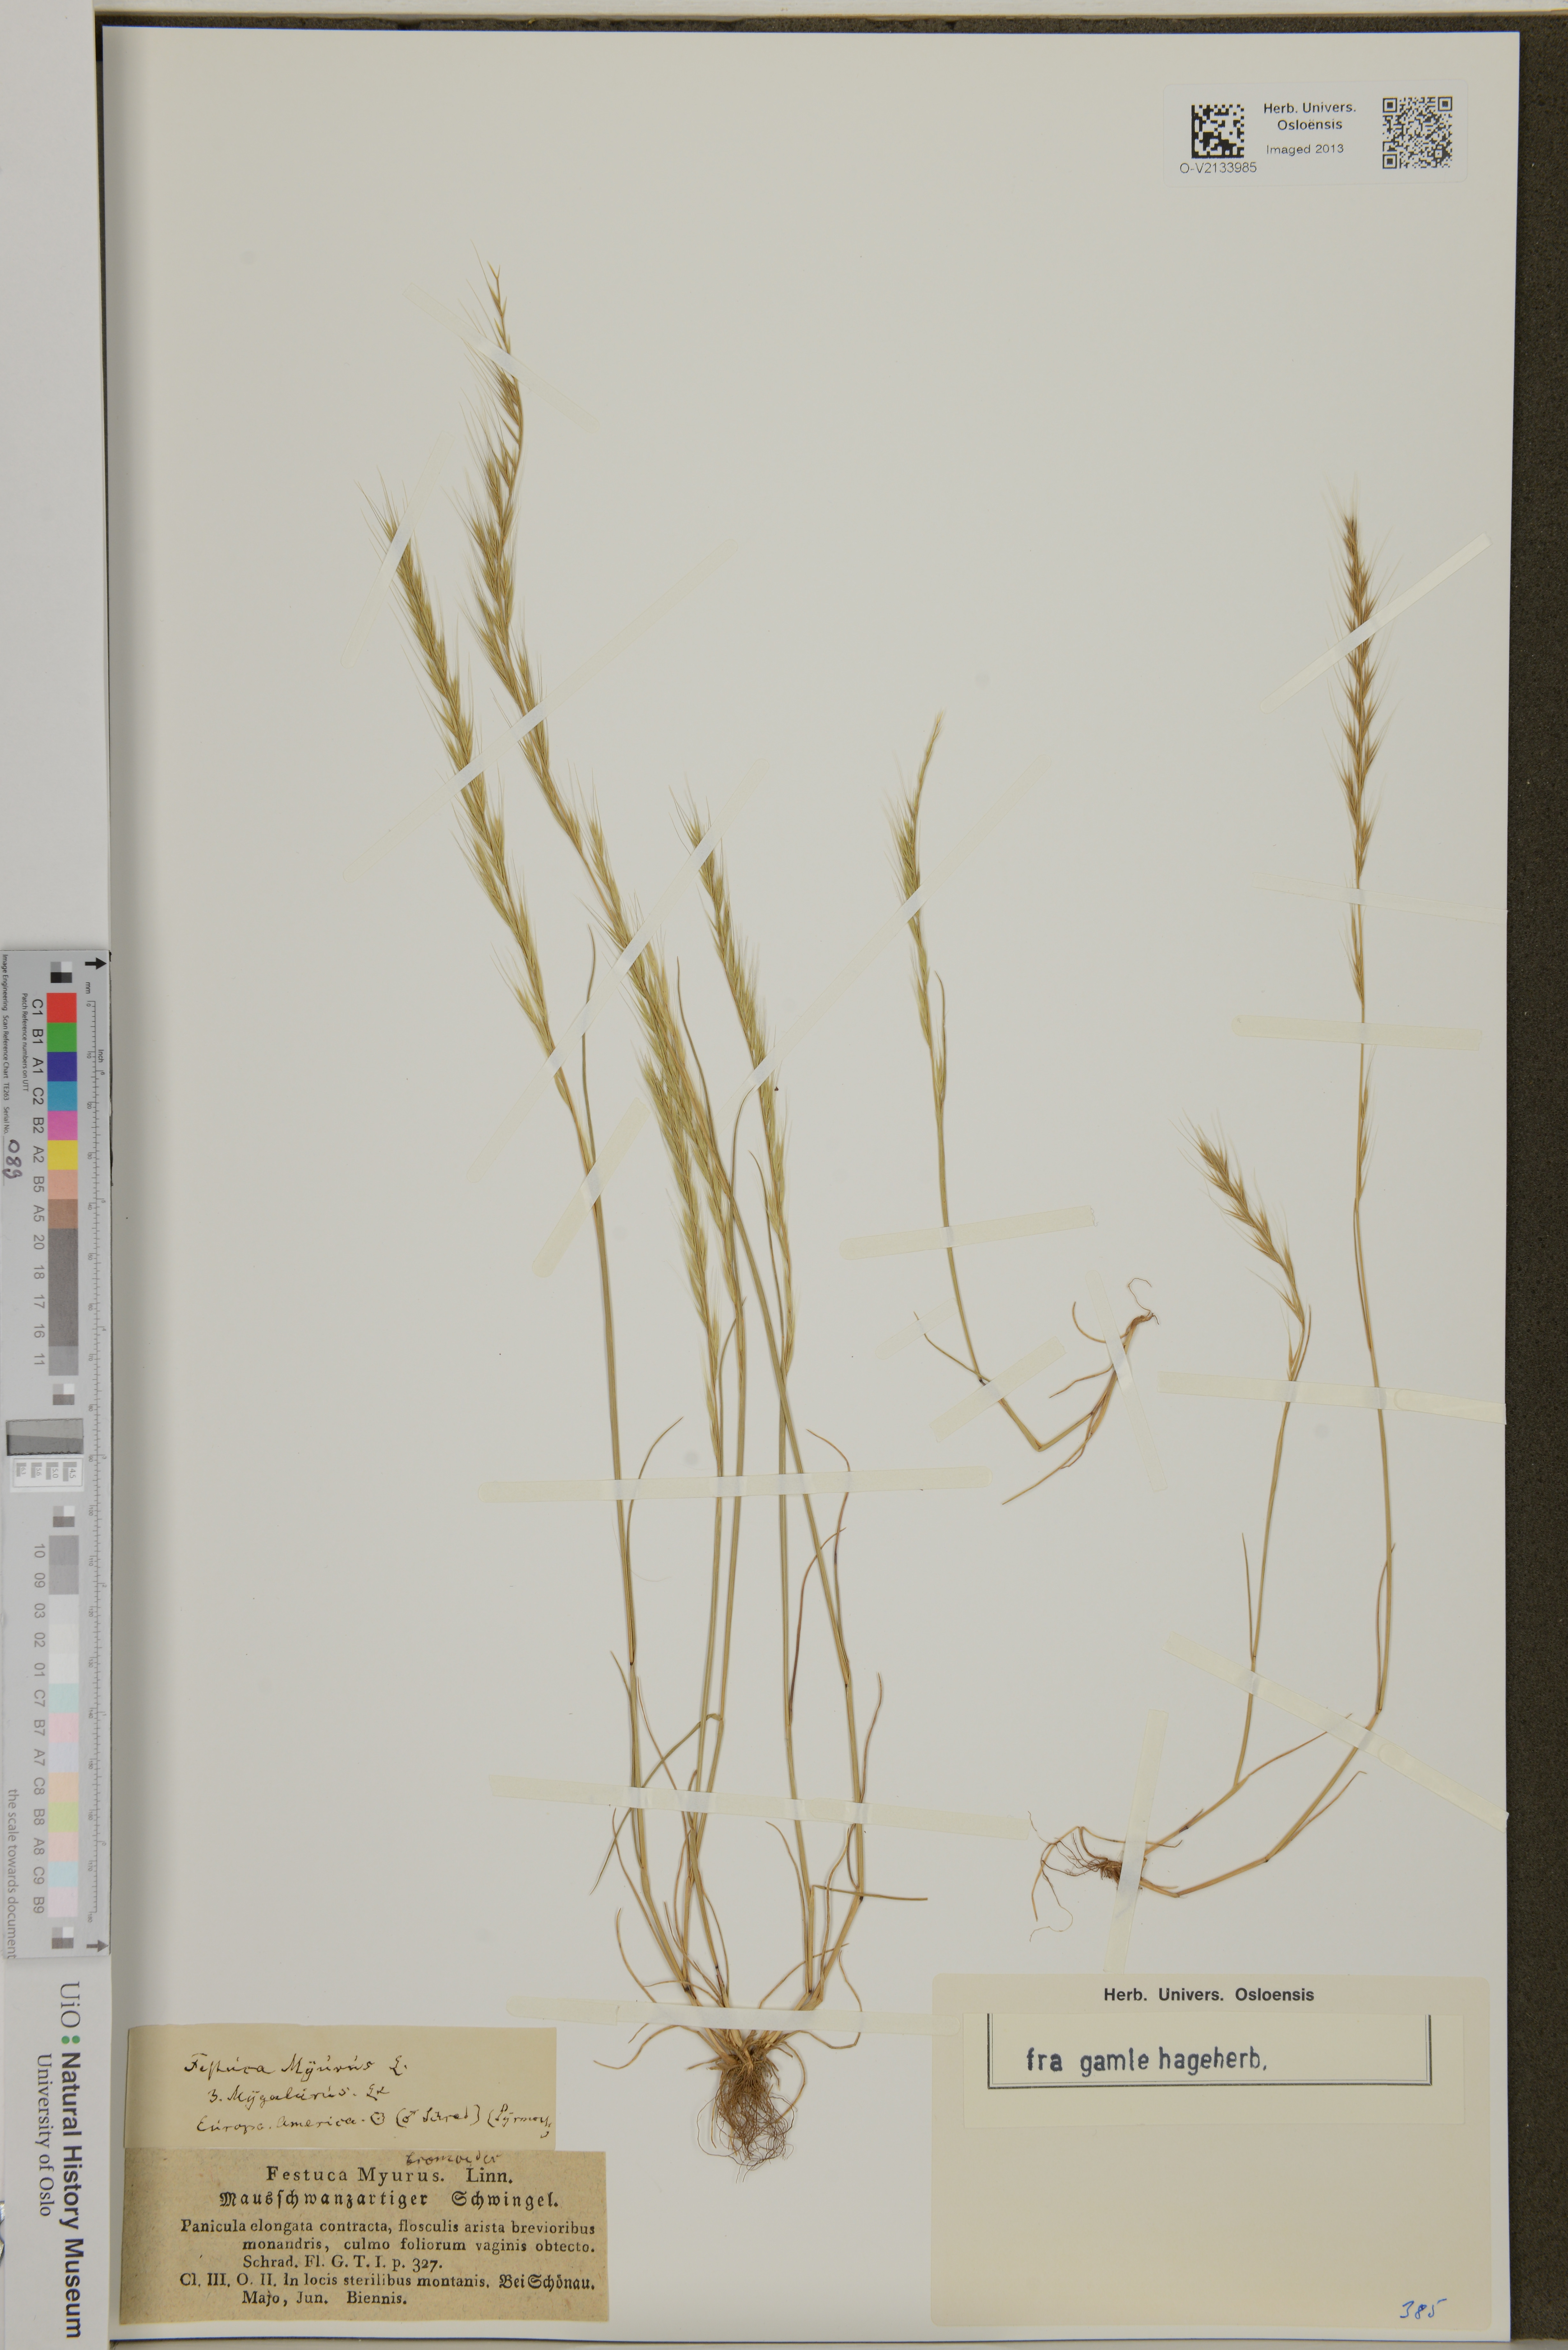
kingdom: Plantae
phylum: Tracheophyta
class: Liliopsida
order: Poales
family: Poaceae
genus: Festuca
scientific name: Festuca myuros
